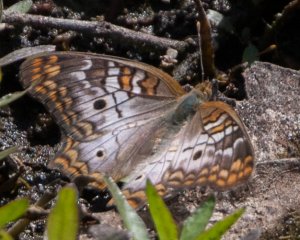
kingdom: Animalia
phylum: Arthropoda
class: Insecta
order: Lepidoptera
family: Nymphalidae
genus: Anartia
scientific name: Anartia jatrophae
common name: White Peacock
